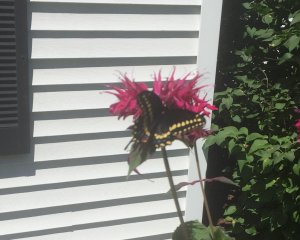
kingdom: Animalia
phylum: Arthropoda
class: Insecta
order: Lepidoptera
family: Papilionidae
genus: Papilio
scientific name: Papilio polyxenes
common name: Black Swallowtail
